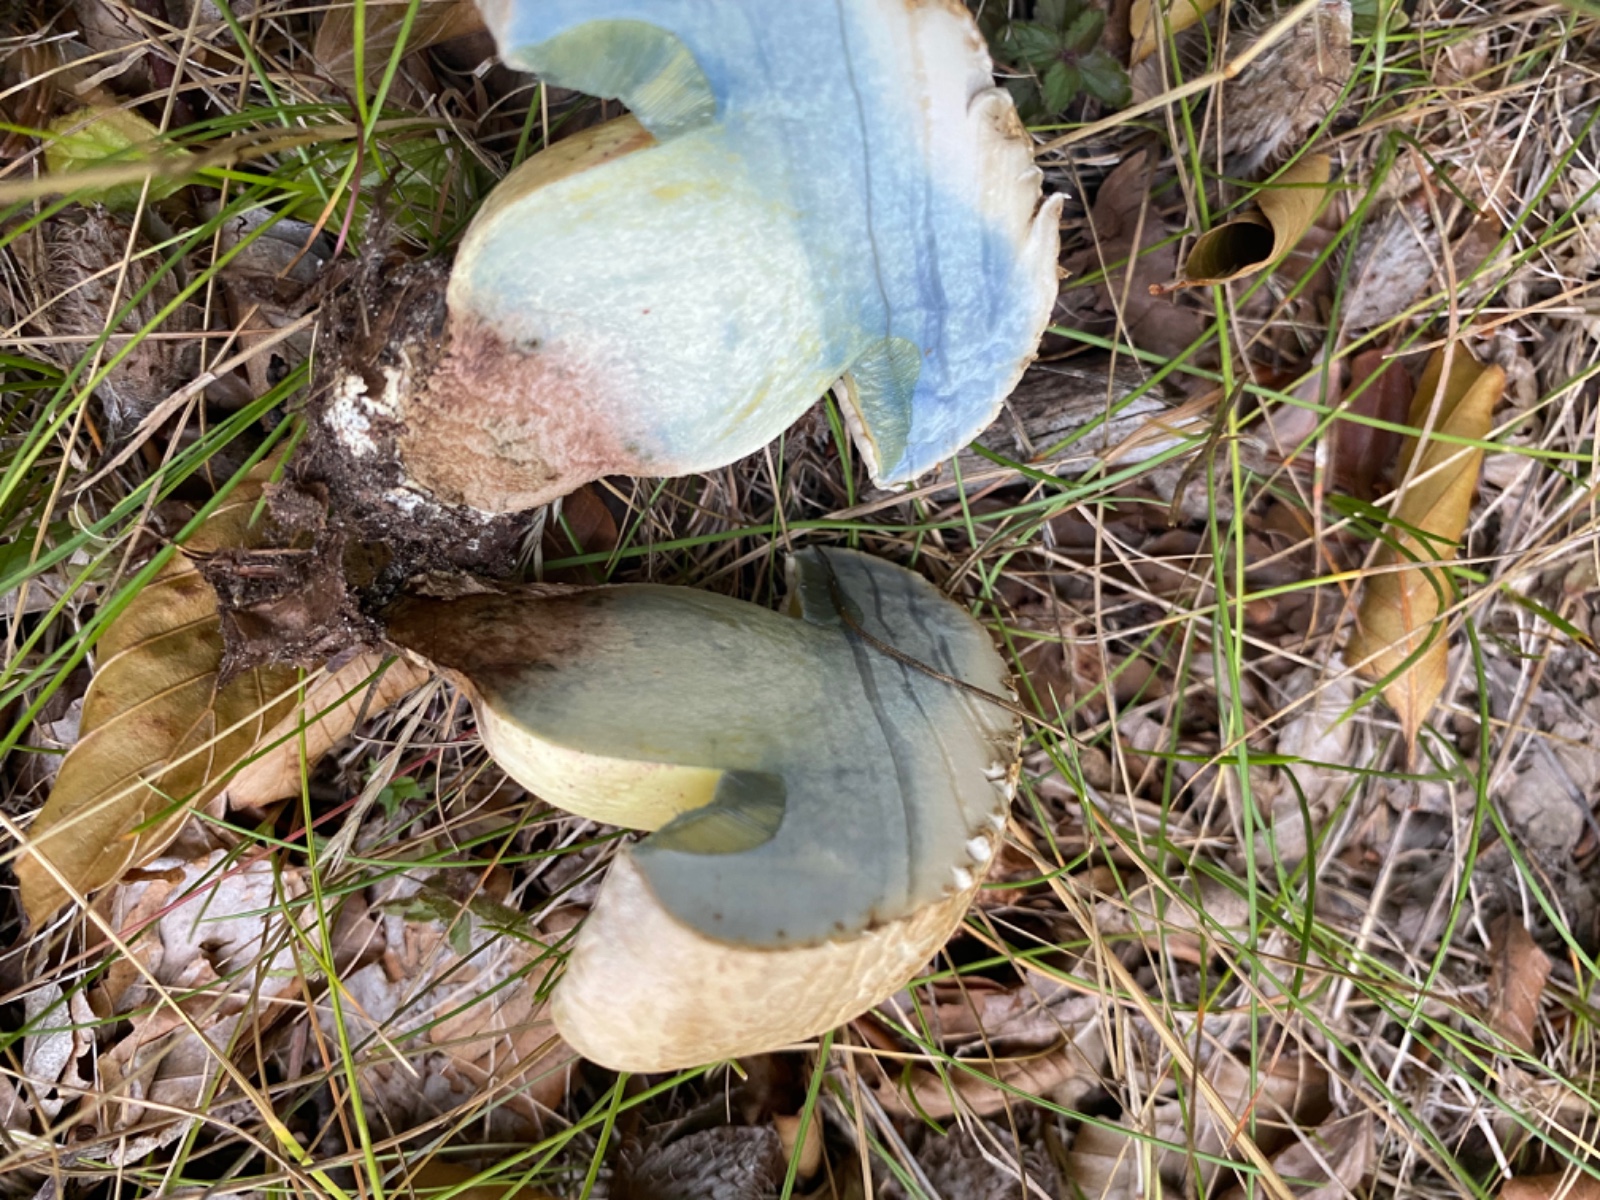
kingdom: Fungi
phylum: Basidiomycota
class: Agaricomycetes
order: Boletales
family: Boletaceae
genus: Caloboletus
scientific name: Caloboletus radicans
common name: rod-rørhat
